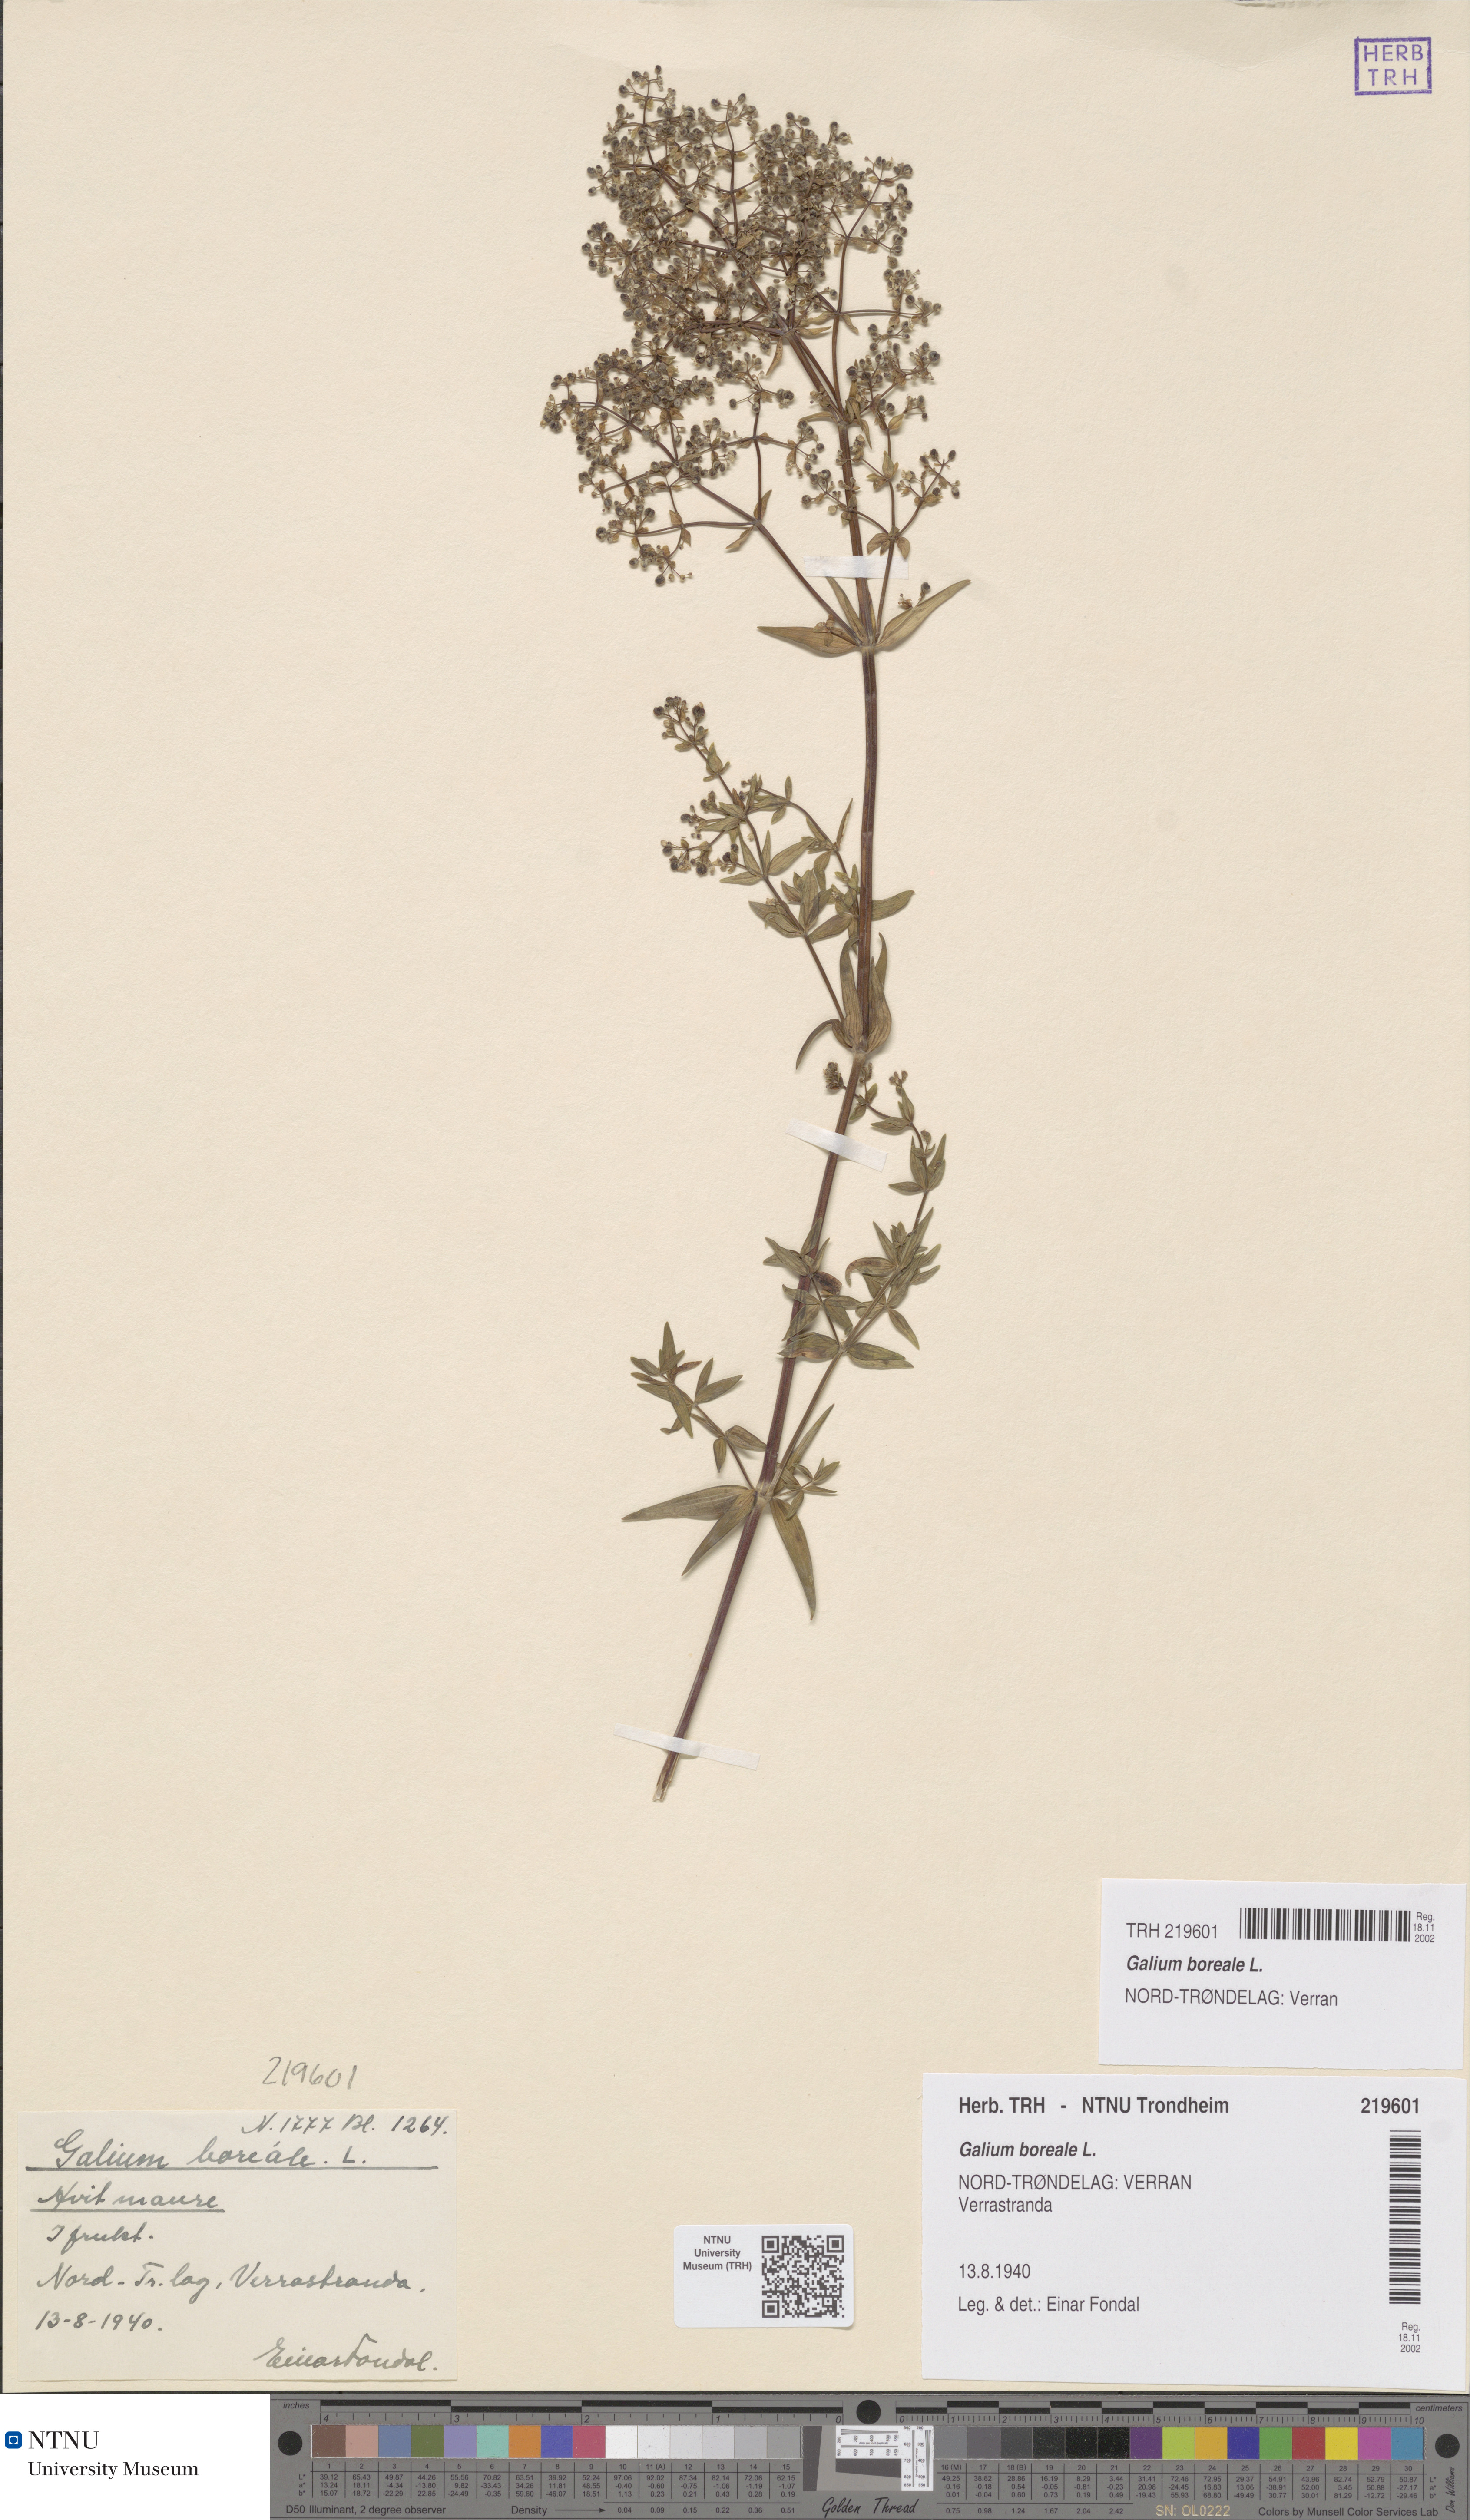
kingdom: Plantae
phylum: Tracheophyta
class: Magnoliopsida
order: Gentianales
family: Rubiaceae
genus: Galium
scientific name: Galium boreale
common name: Northern bedstraw
